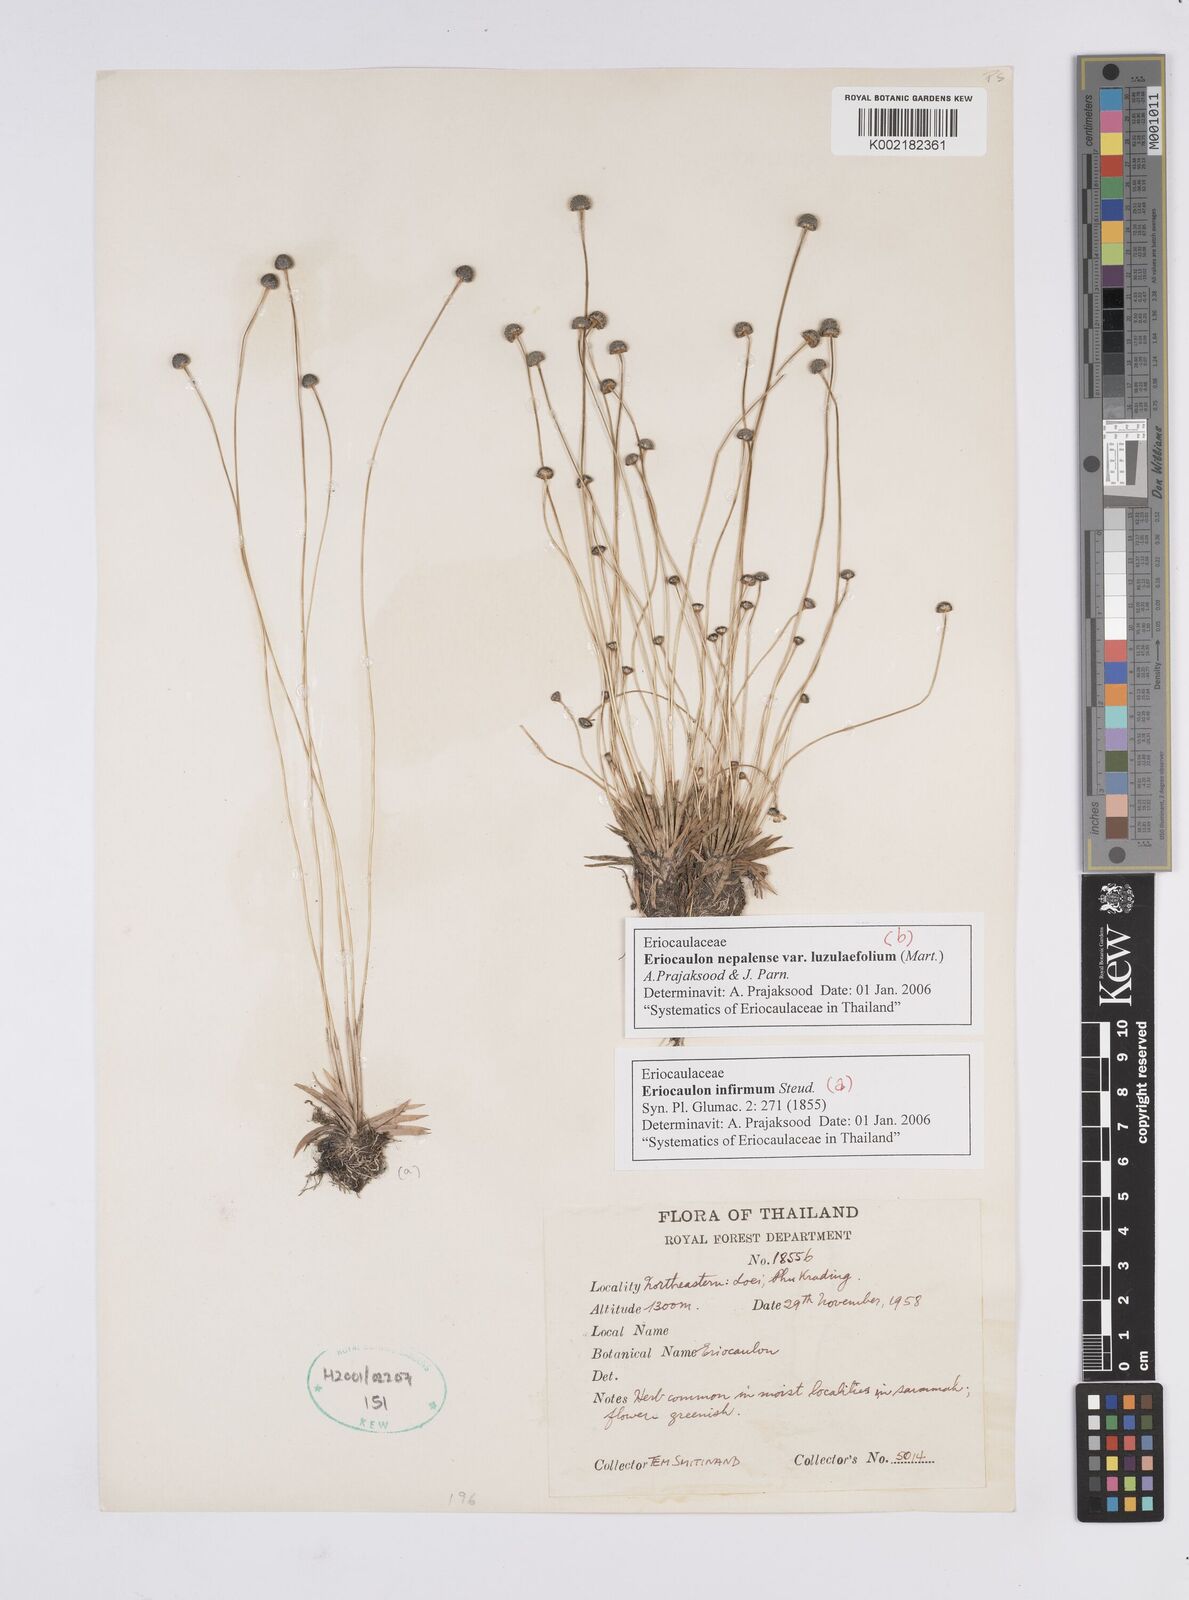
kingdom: Plantae
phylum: Tracheophyta
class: Liliopsida
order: Poales
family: Eriocaulaceae
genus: Eriocaulon
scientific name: Eriocaulon infirmum
